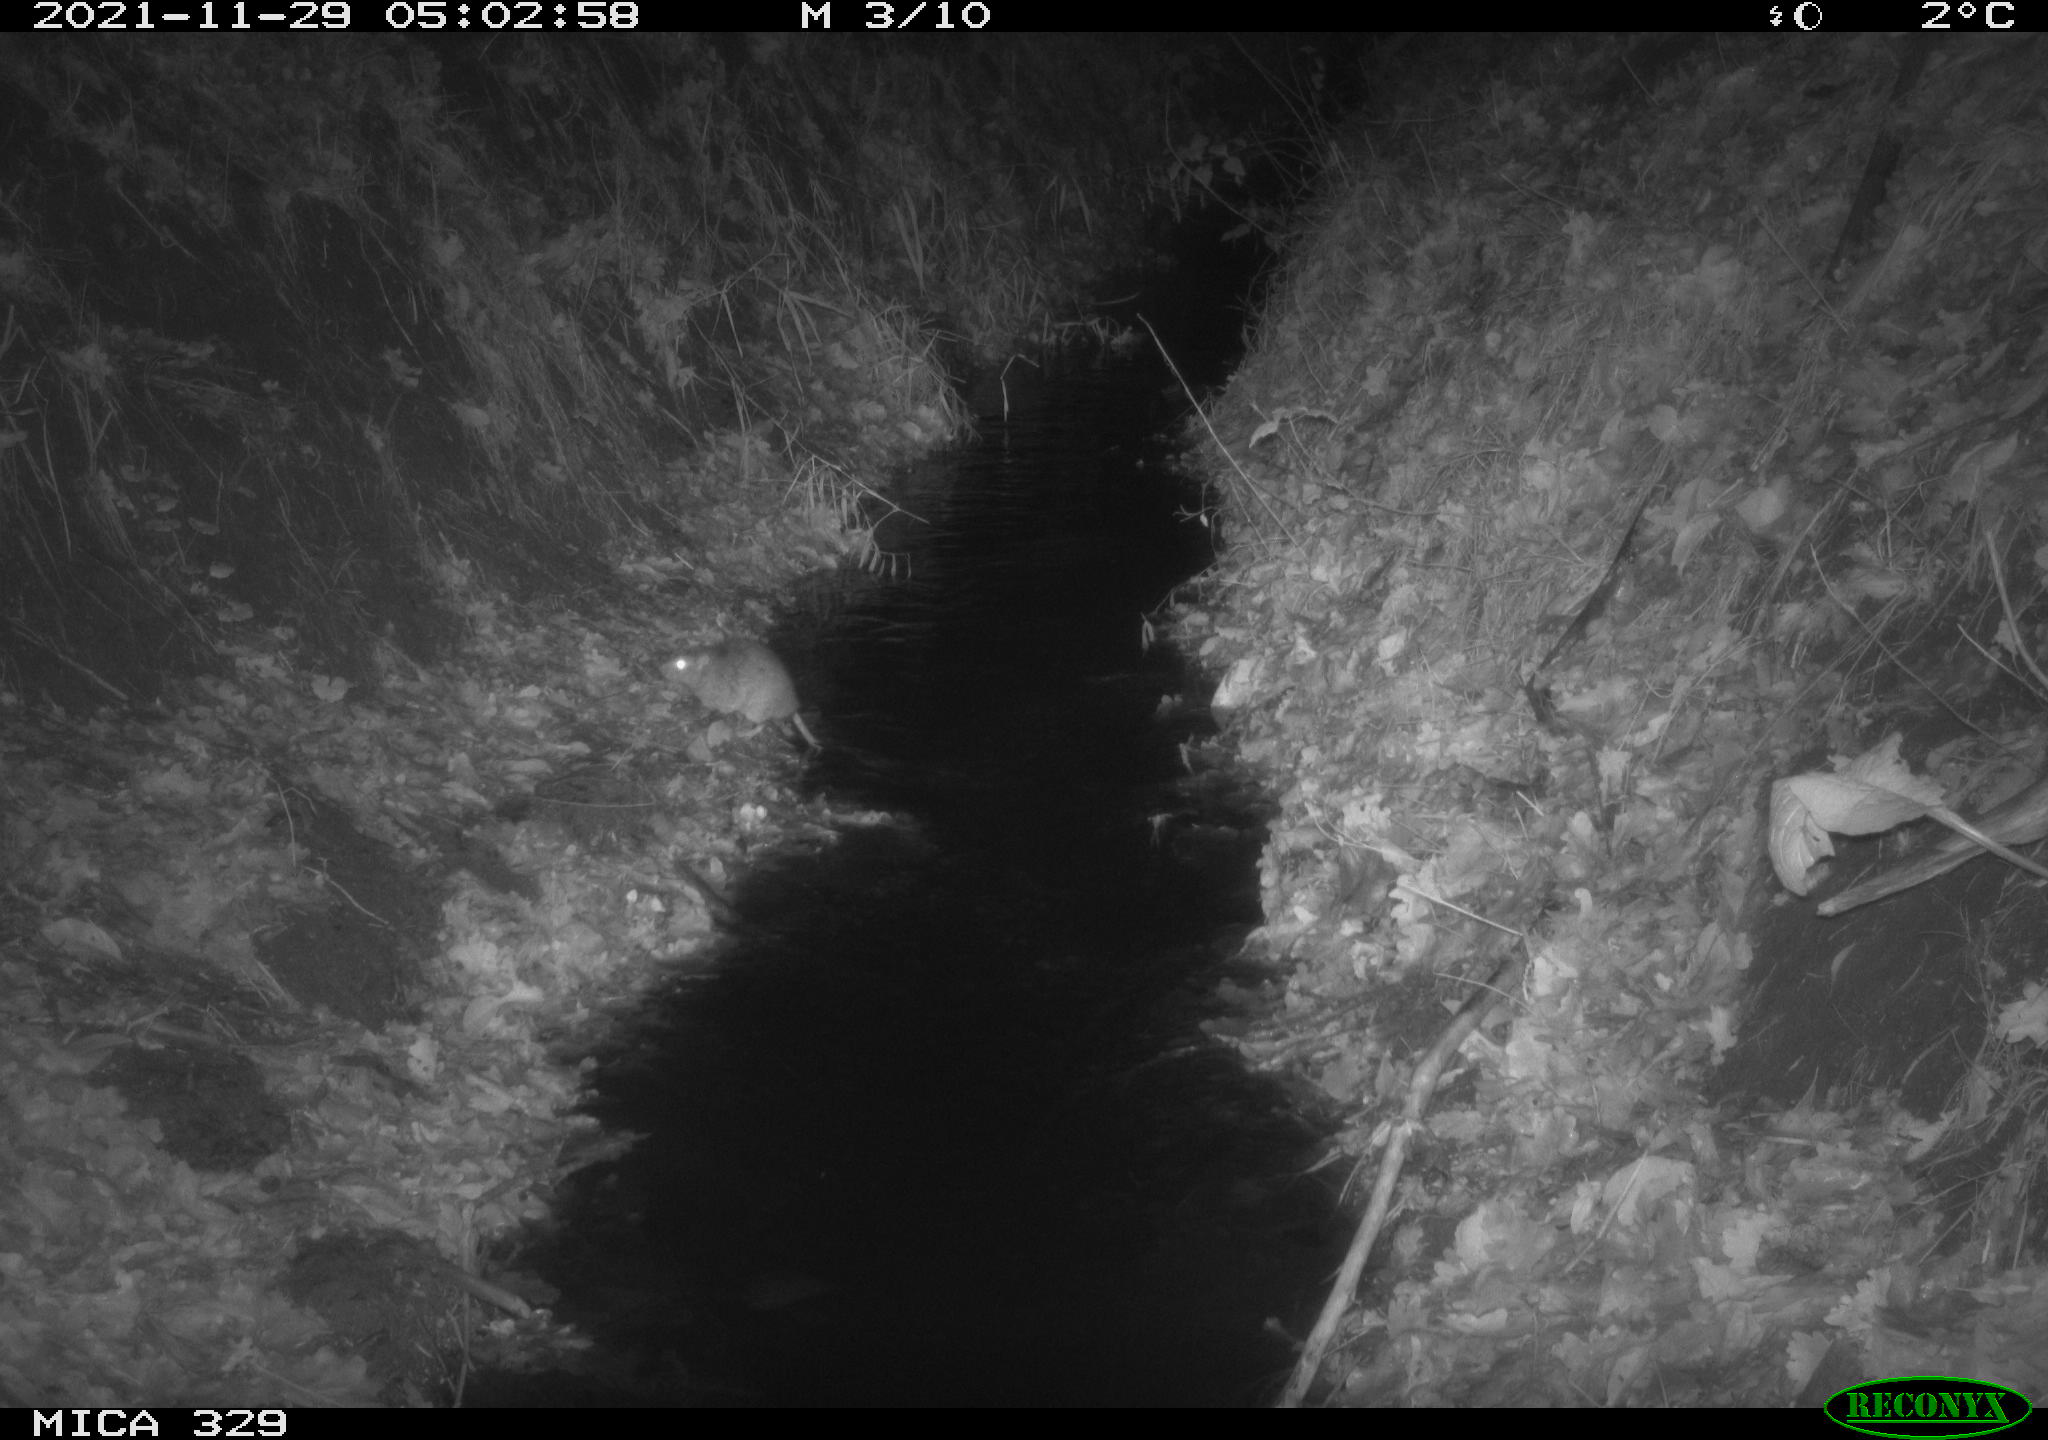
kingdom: Animalia
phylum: Chordata
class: Mammalia
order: Rodentia
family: Muridae
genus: Rattus
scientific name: Rattus norvegicus
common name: Brown rat
